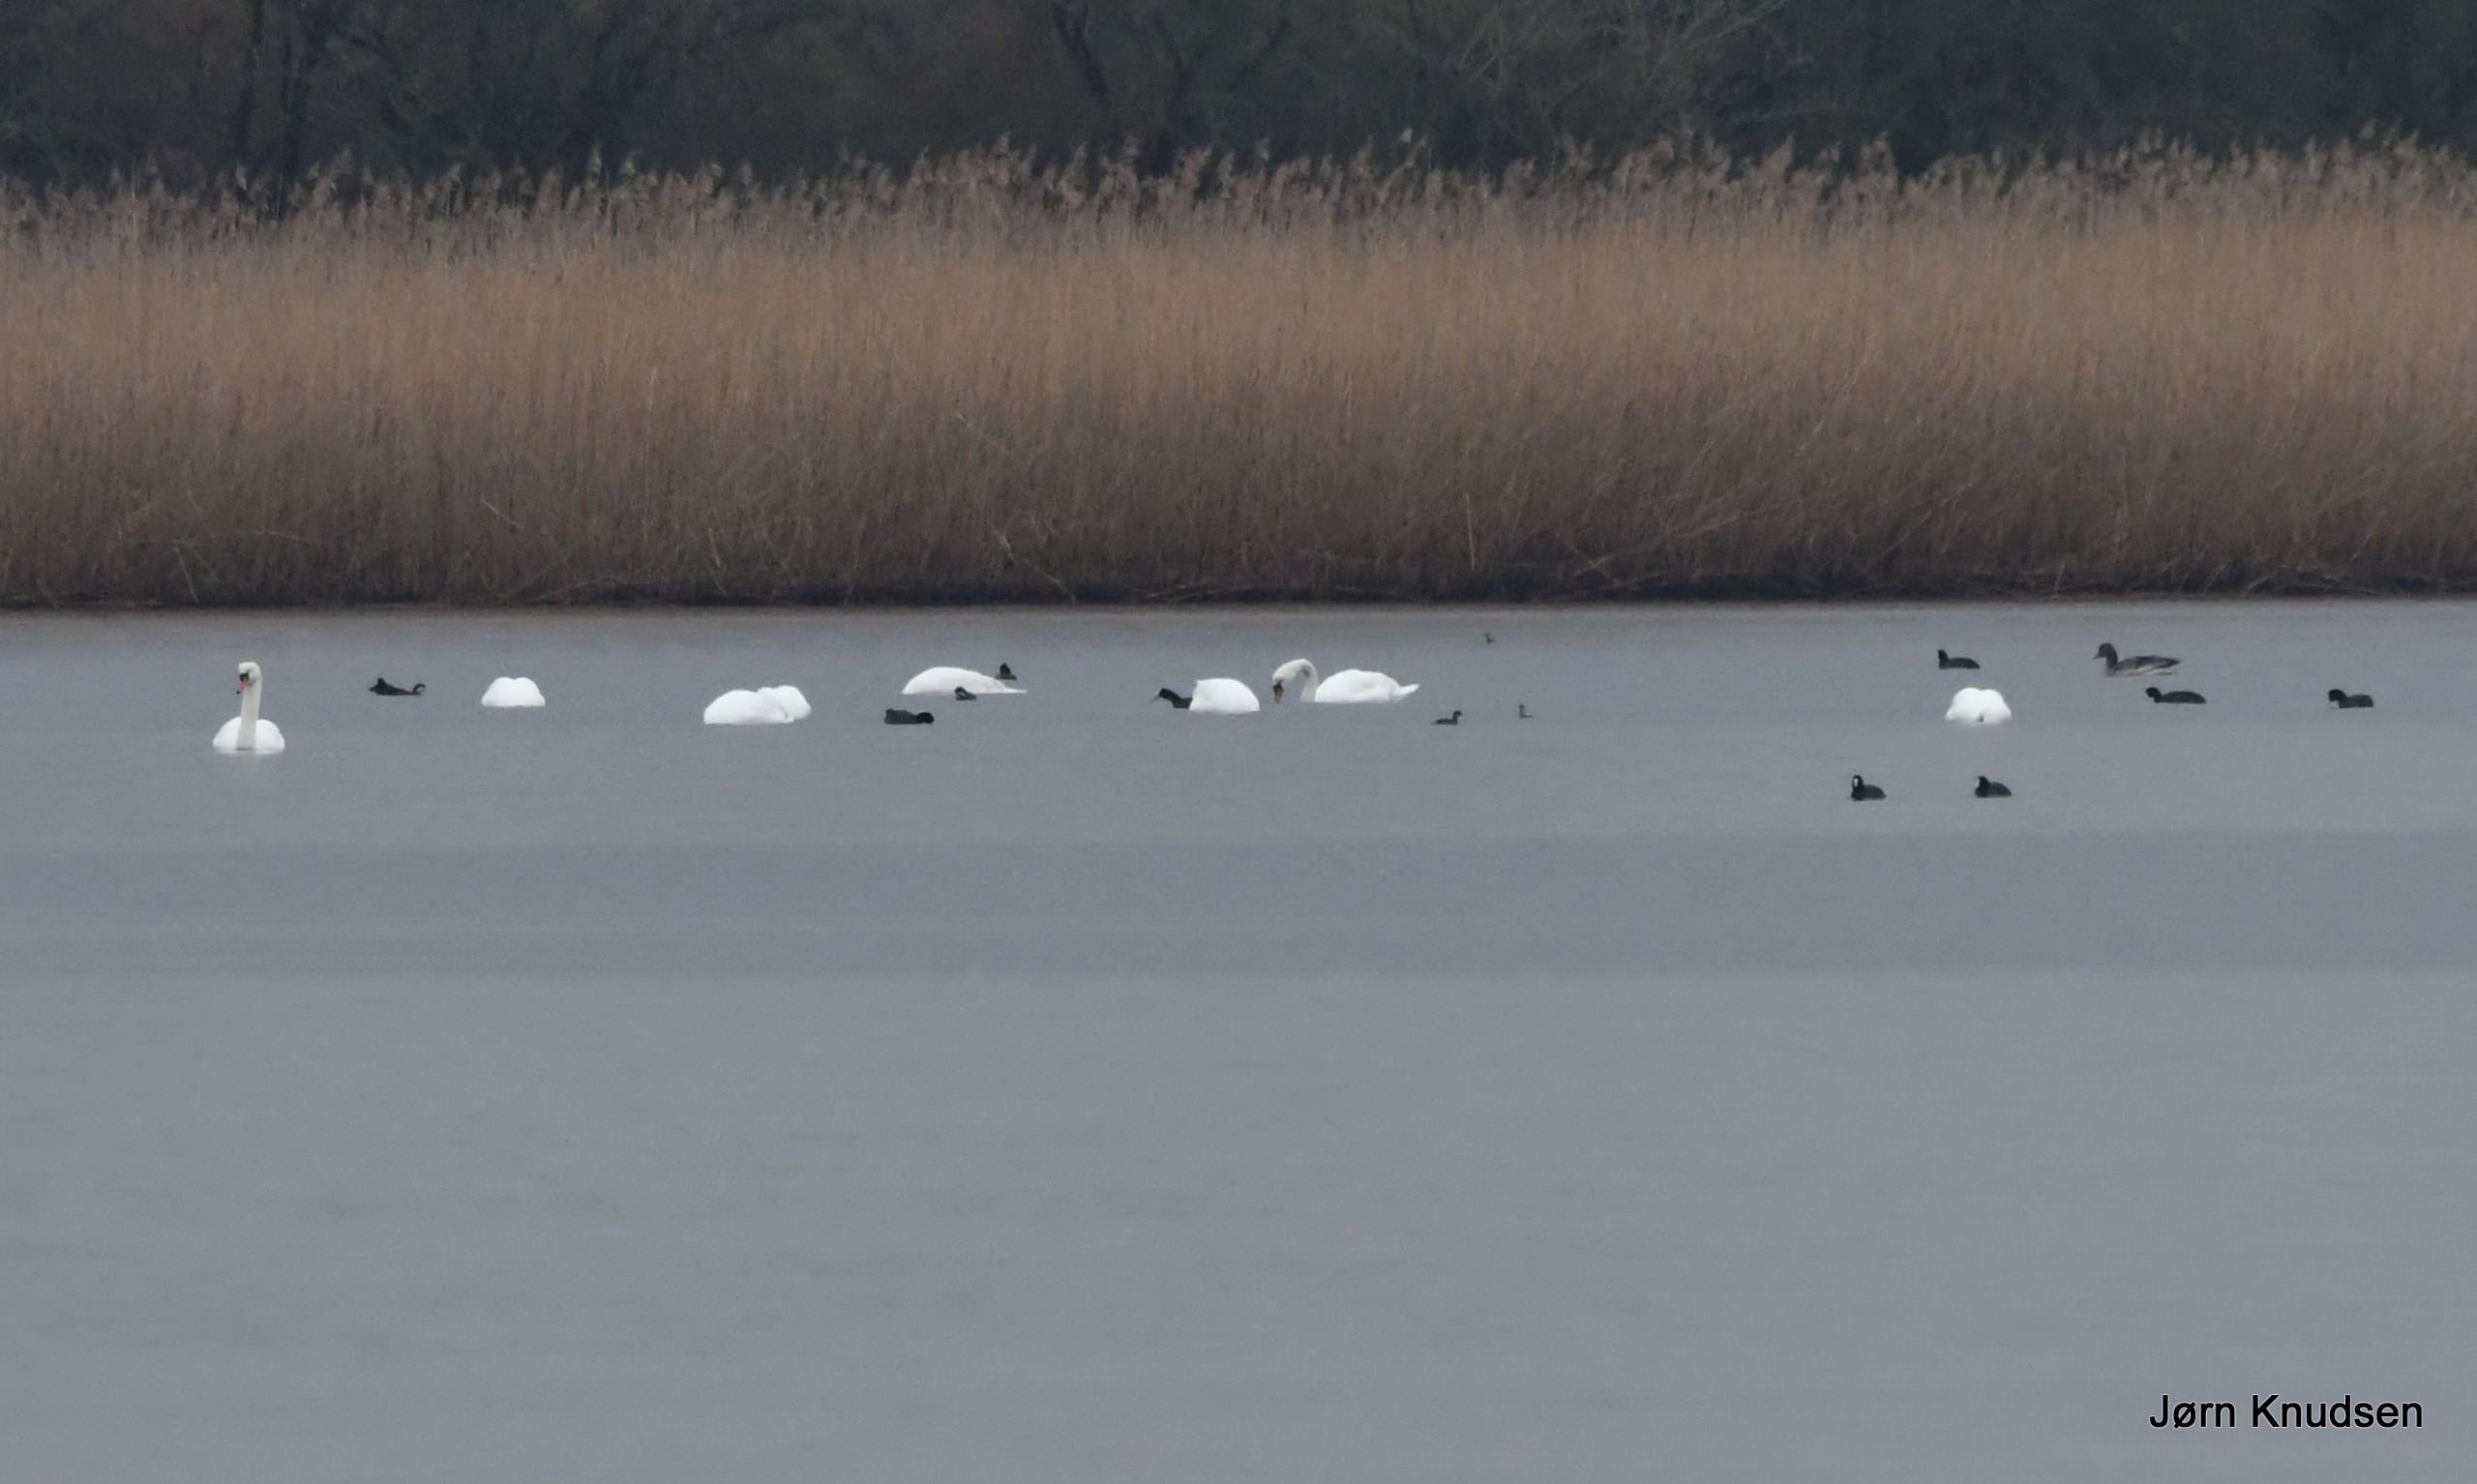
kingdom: Animalia
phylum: Chordata
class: Aves
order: Anseriformes
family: Anatidae
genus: Cygnus
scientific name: Cygnus olor
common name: Knopsvane
